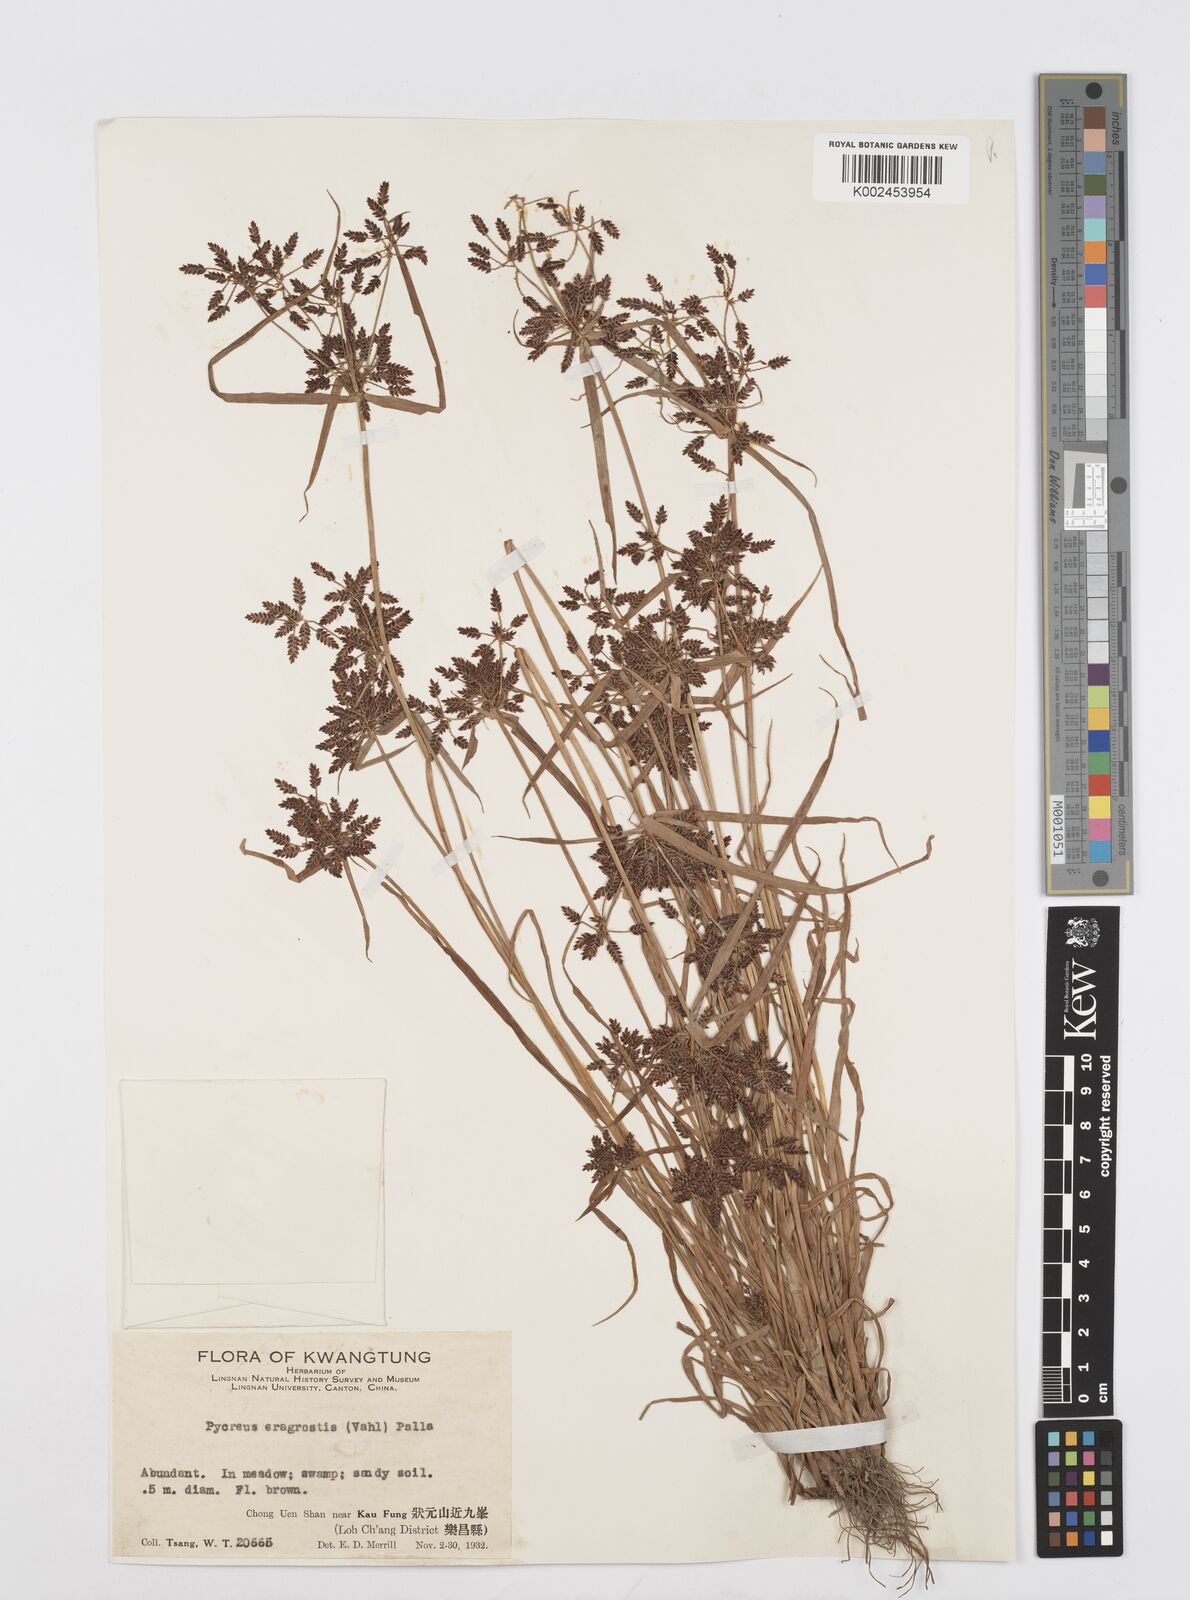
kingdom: Plantae
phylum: Tracheophyta
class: Liliopsida
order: Poales
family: Cyperaceae
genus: Cyperus
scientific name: Cyperus sanguinolentus
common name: Purpleglume flatsedge
